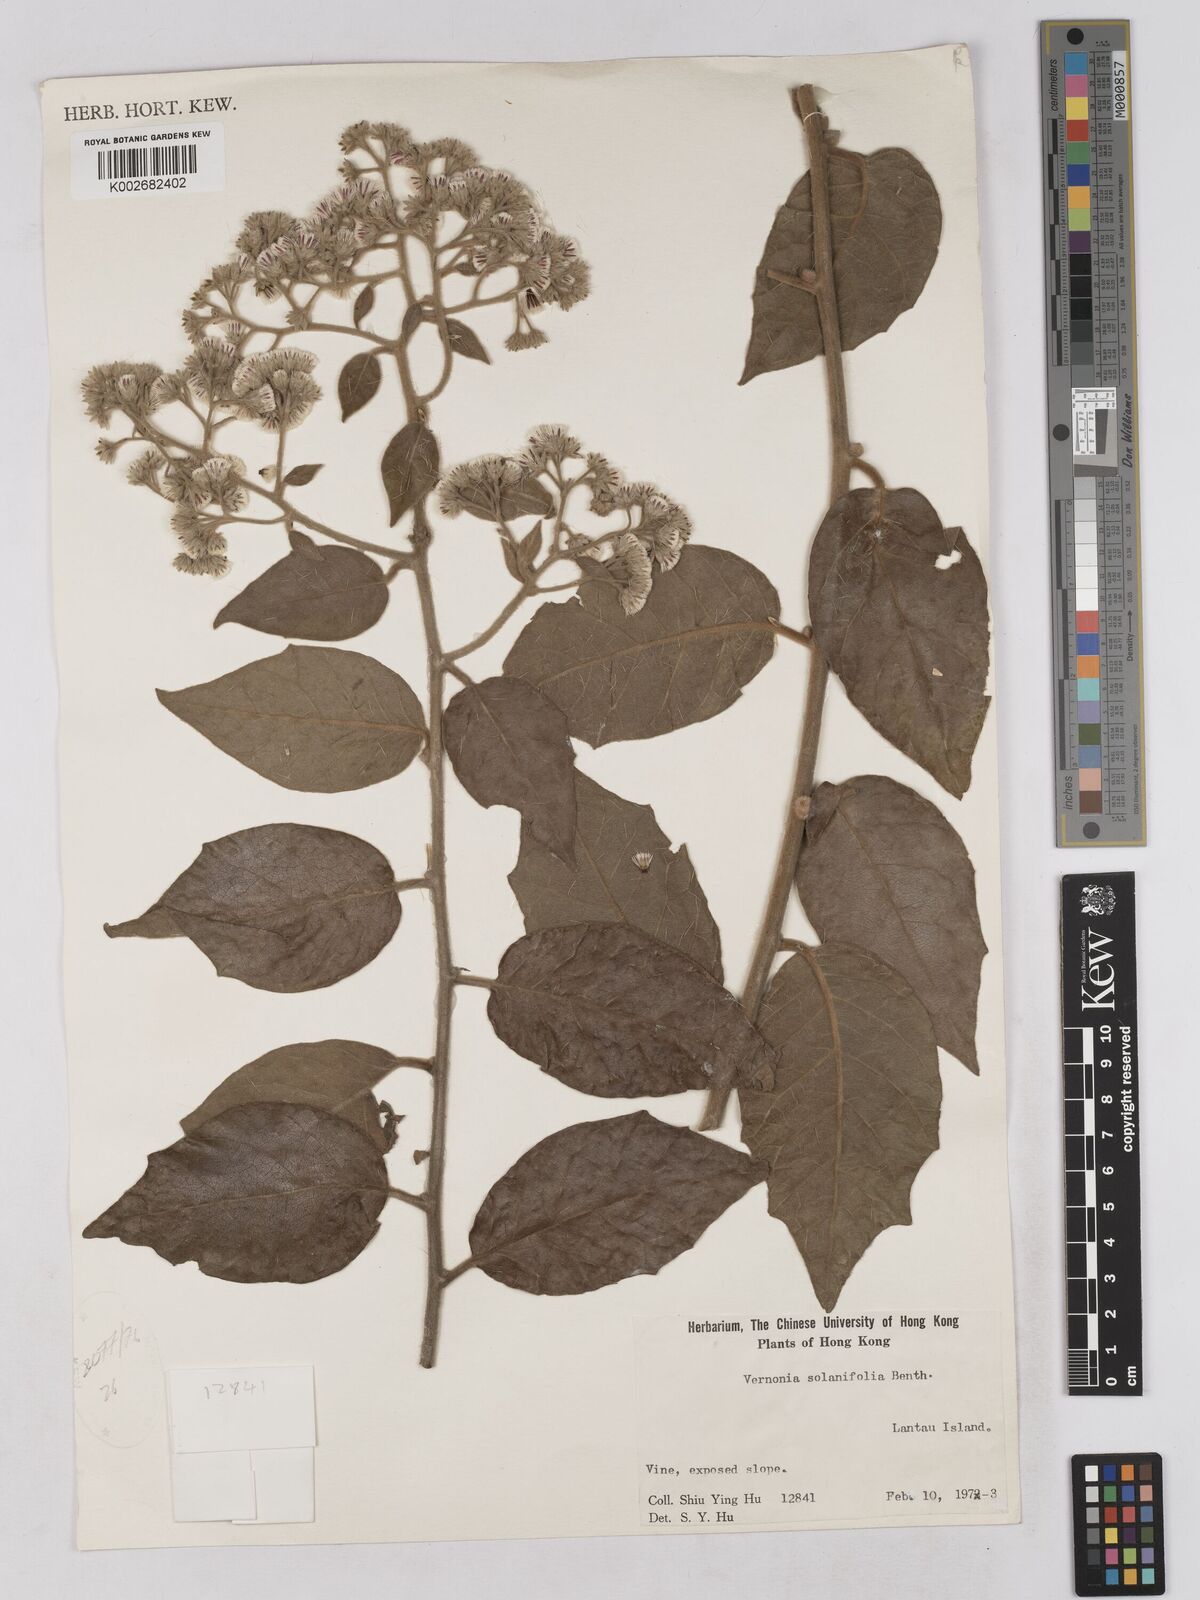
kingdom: Plantae
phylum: Tracheophyta
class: Magnoliopsida
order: Asterales
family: Asteraceae
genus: Strobocalyx
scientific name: Strobocalyx solanifolia
